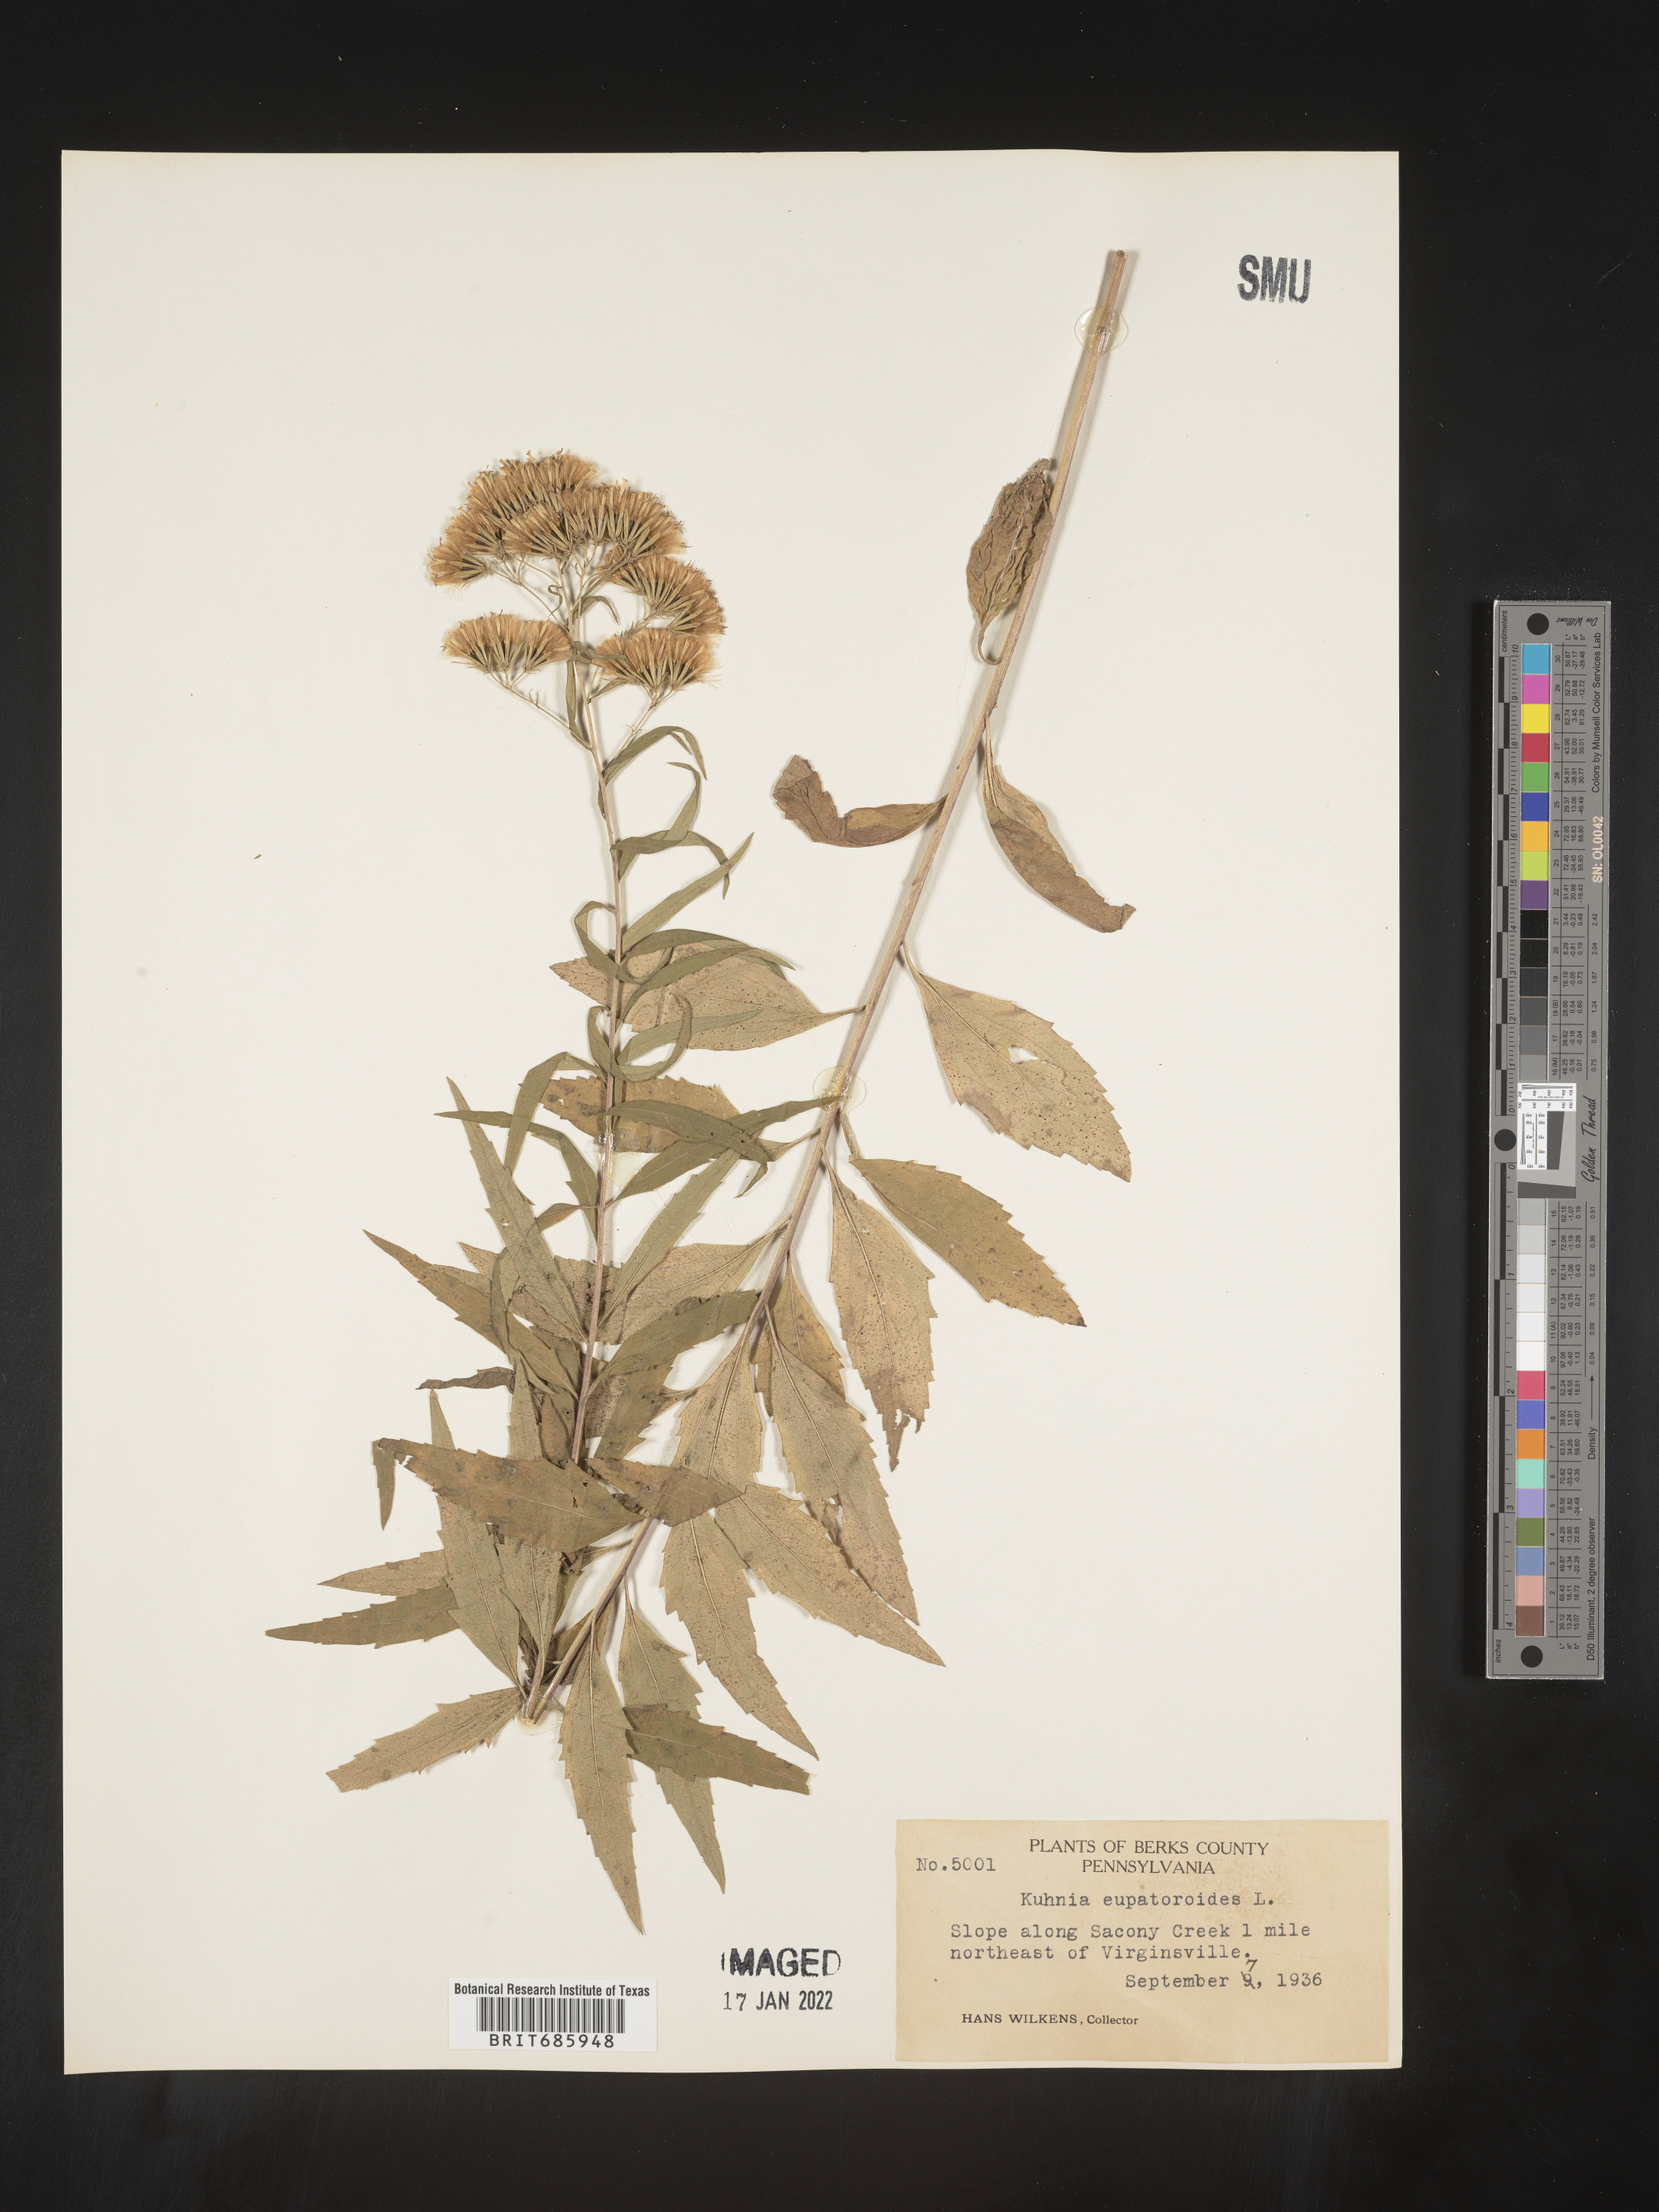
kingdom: Plantae
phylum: Tracheophyta
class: Magnoliopsida
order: Asterales
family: Asteraceae
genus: Brickellia
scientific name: Brickellia eupatorioides
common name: False boneset
